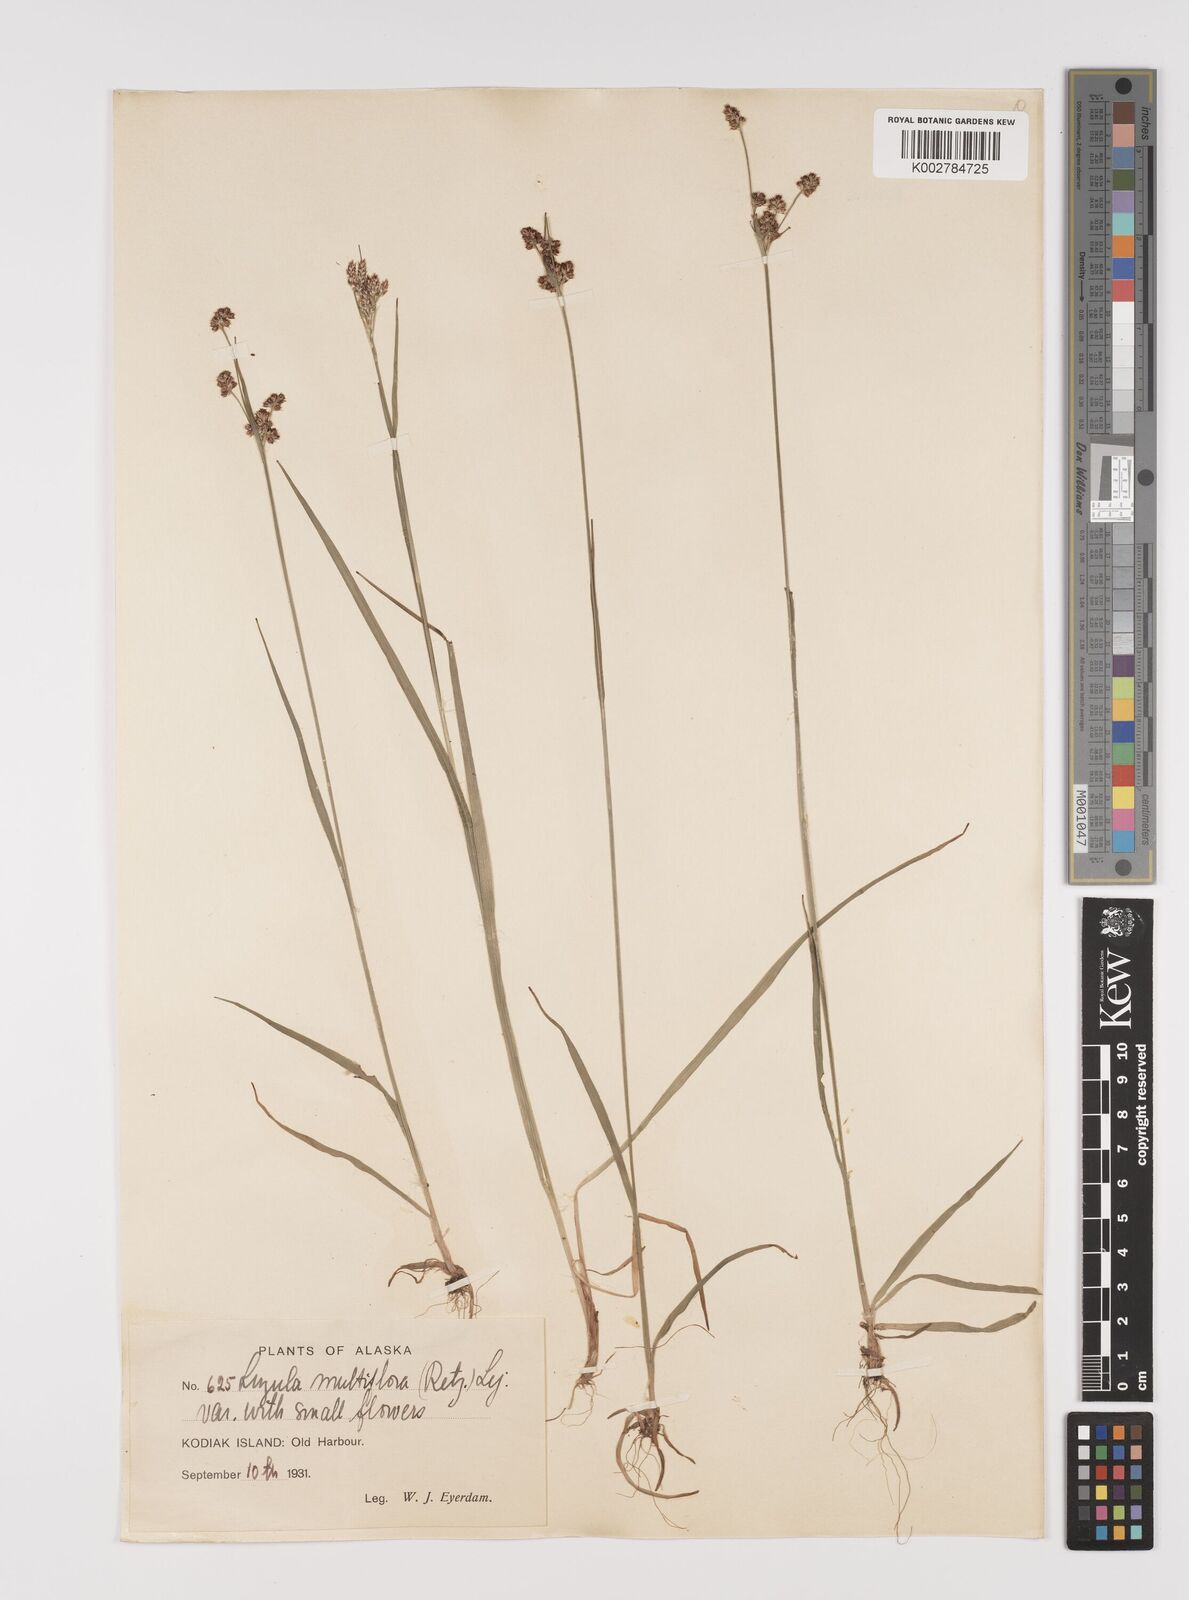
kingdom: Plantae
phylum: Tracheophyta
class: Liliopsida
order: Poales
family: Juncaceae
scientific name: Juncaceae
